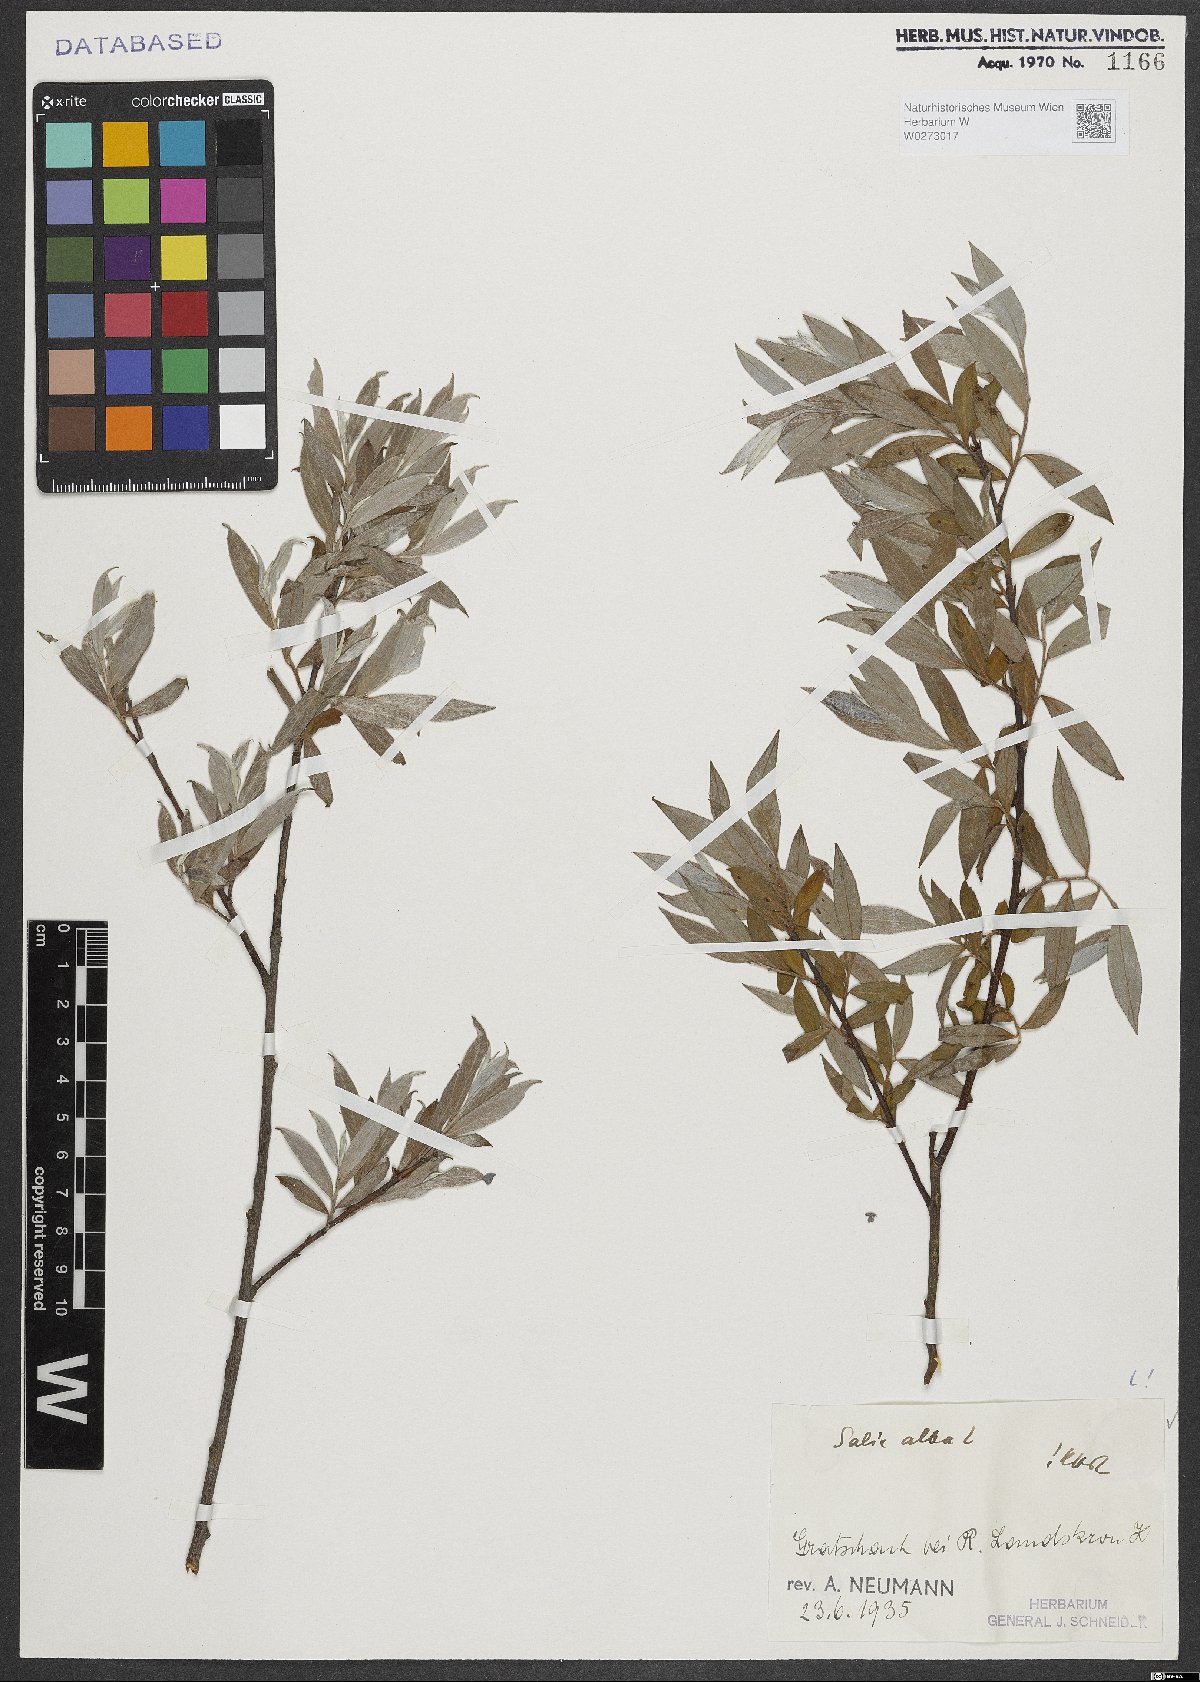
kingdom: Plantae
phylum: Tracheophyta
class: Magnoliopsida
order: Malpighiales
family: Salicaceae
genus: Salix
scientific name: Salix alba
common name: White willow
